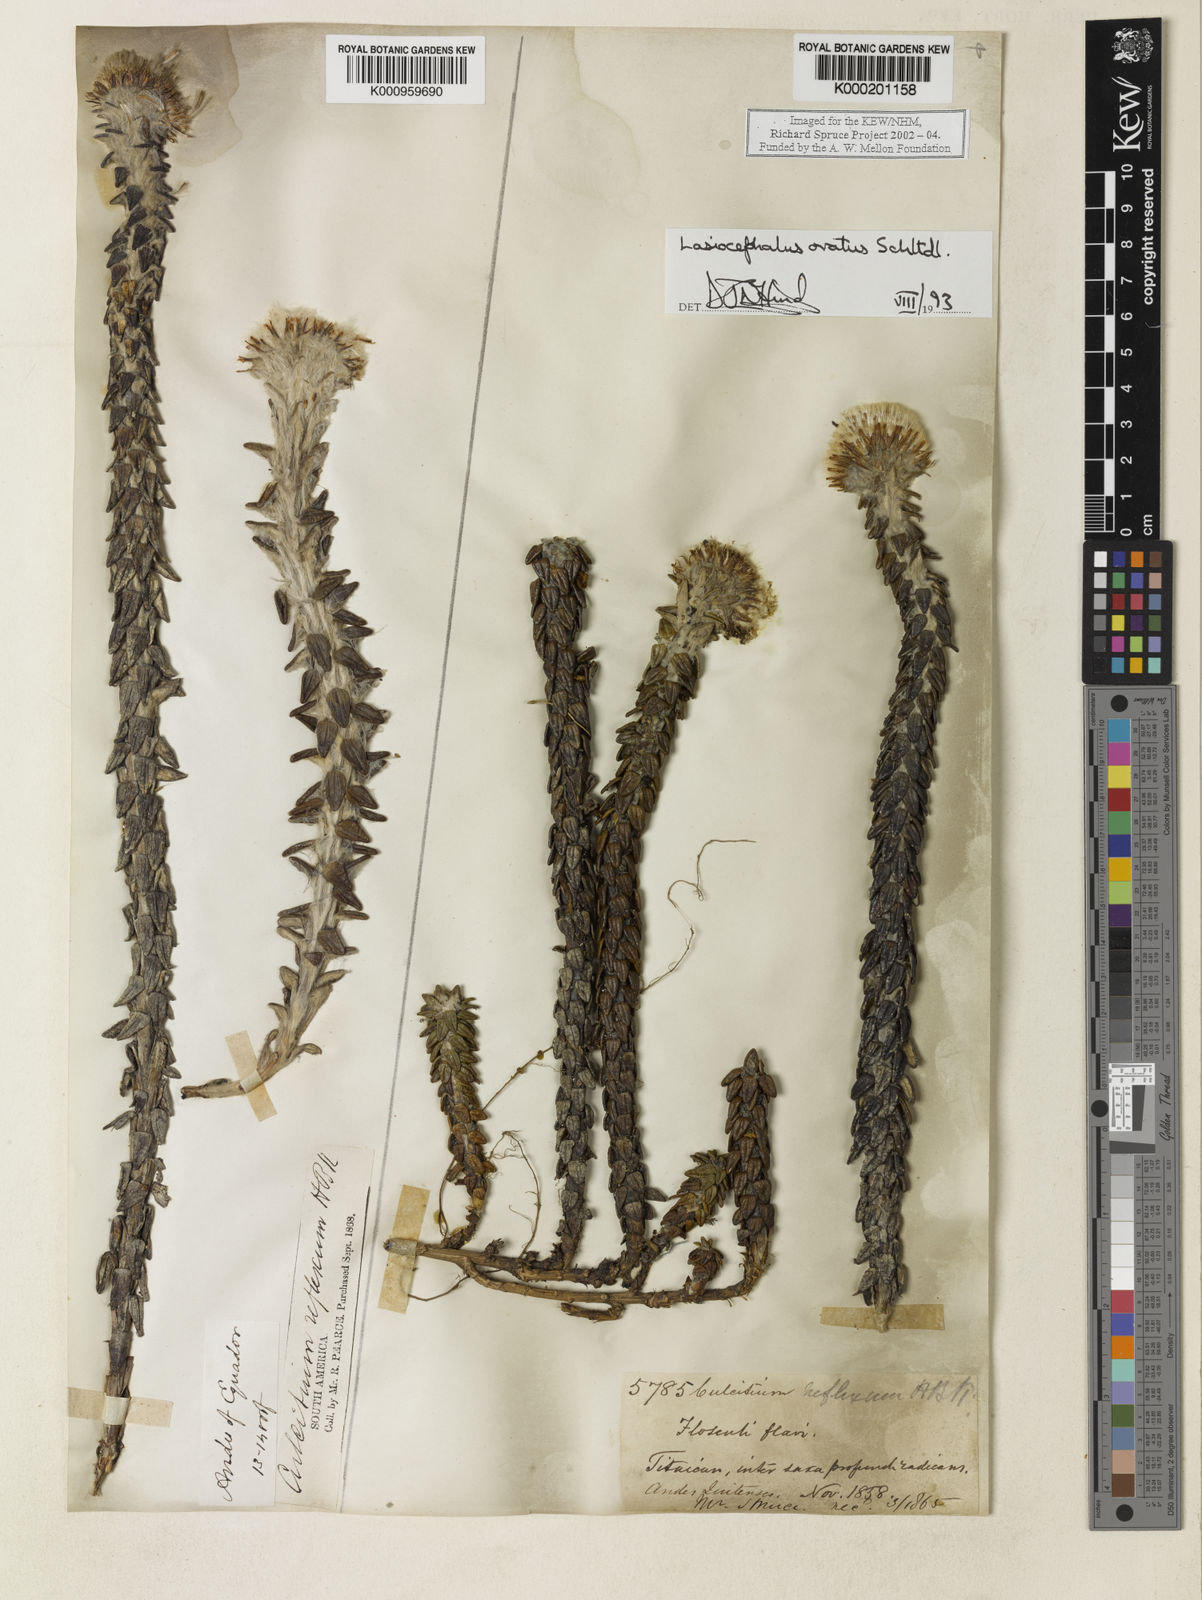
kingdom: Plantae
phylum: Tracheophyta
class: Magnoliopsida
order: Asterales
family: Asteraceae
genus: Lasiocephalus
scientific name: Lasiocephalus ovatus
